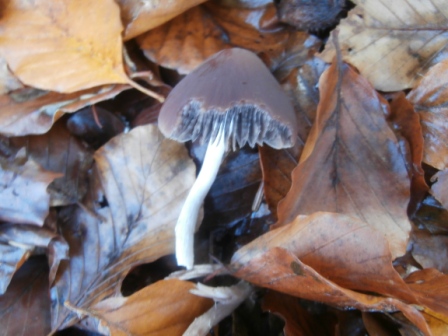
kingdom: Fungi
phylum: Basidiomycota
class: Agaricomycetes
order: Agaricales
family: Psathyrellaceae
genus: Psathyrella
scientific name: Psathyrella bipellis
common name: vinrød mørkhat
